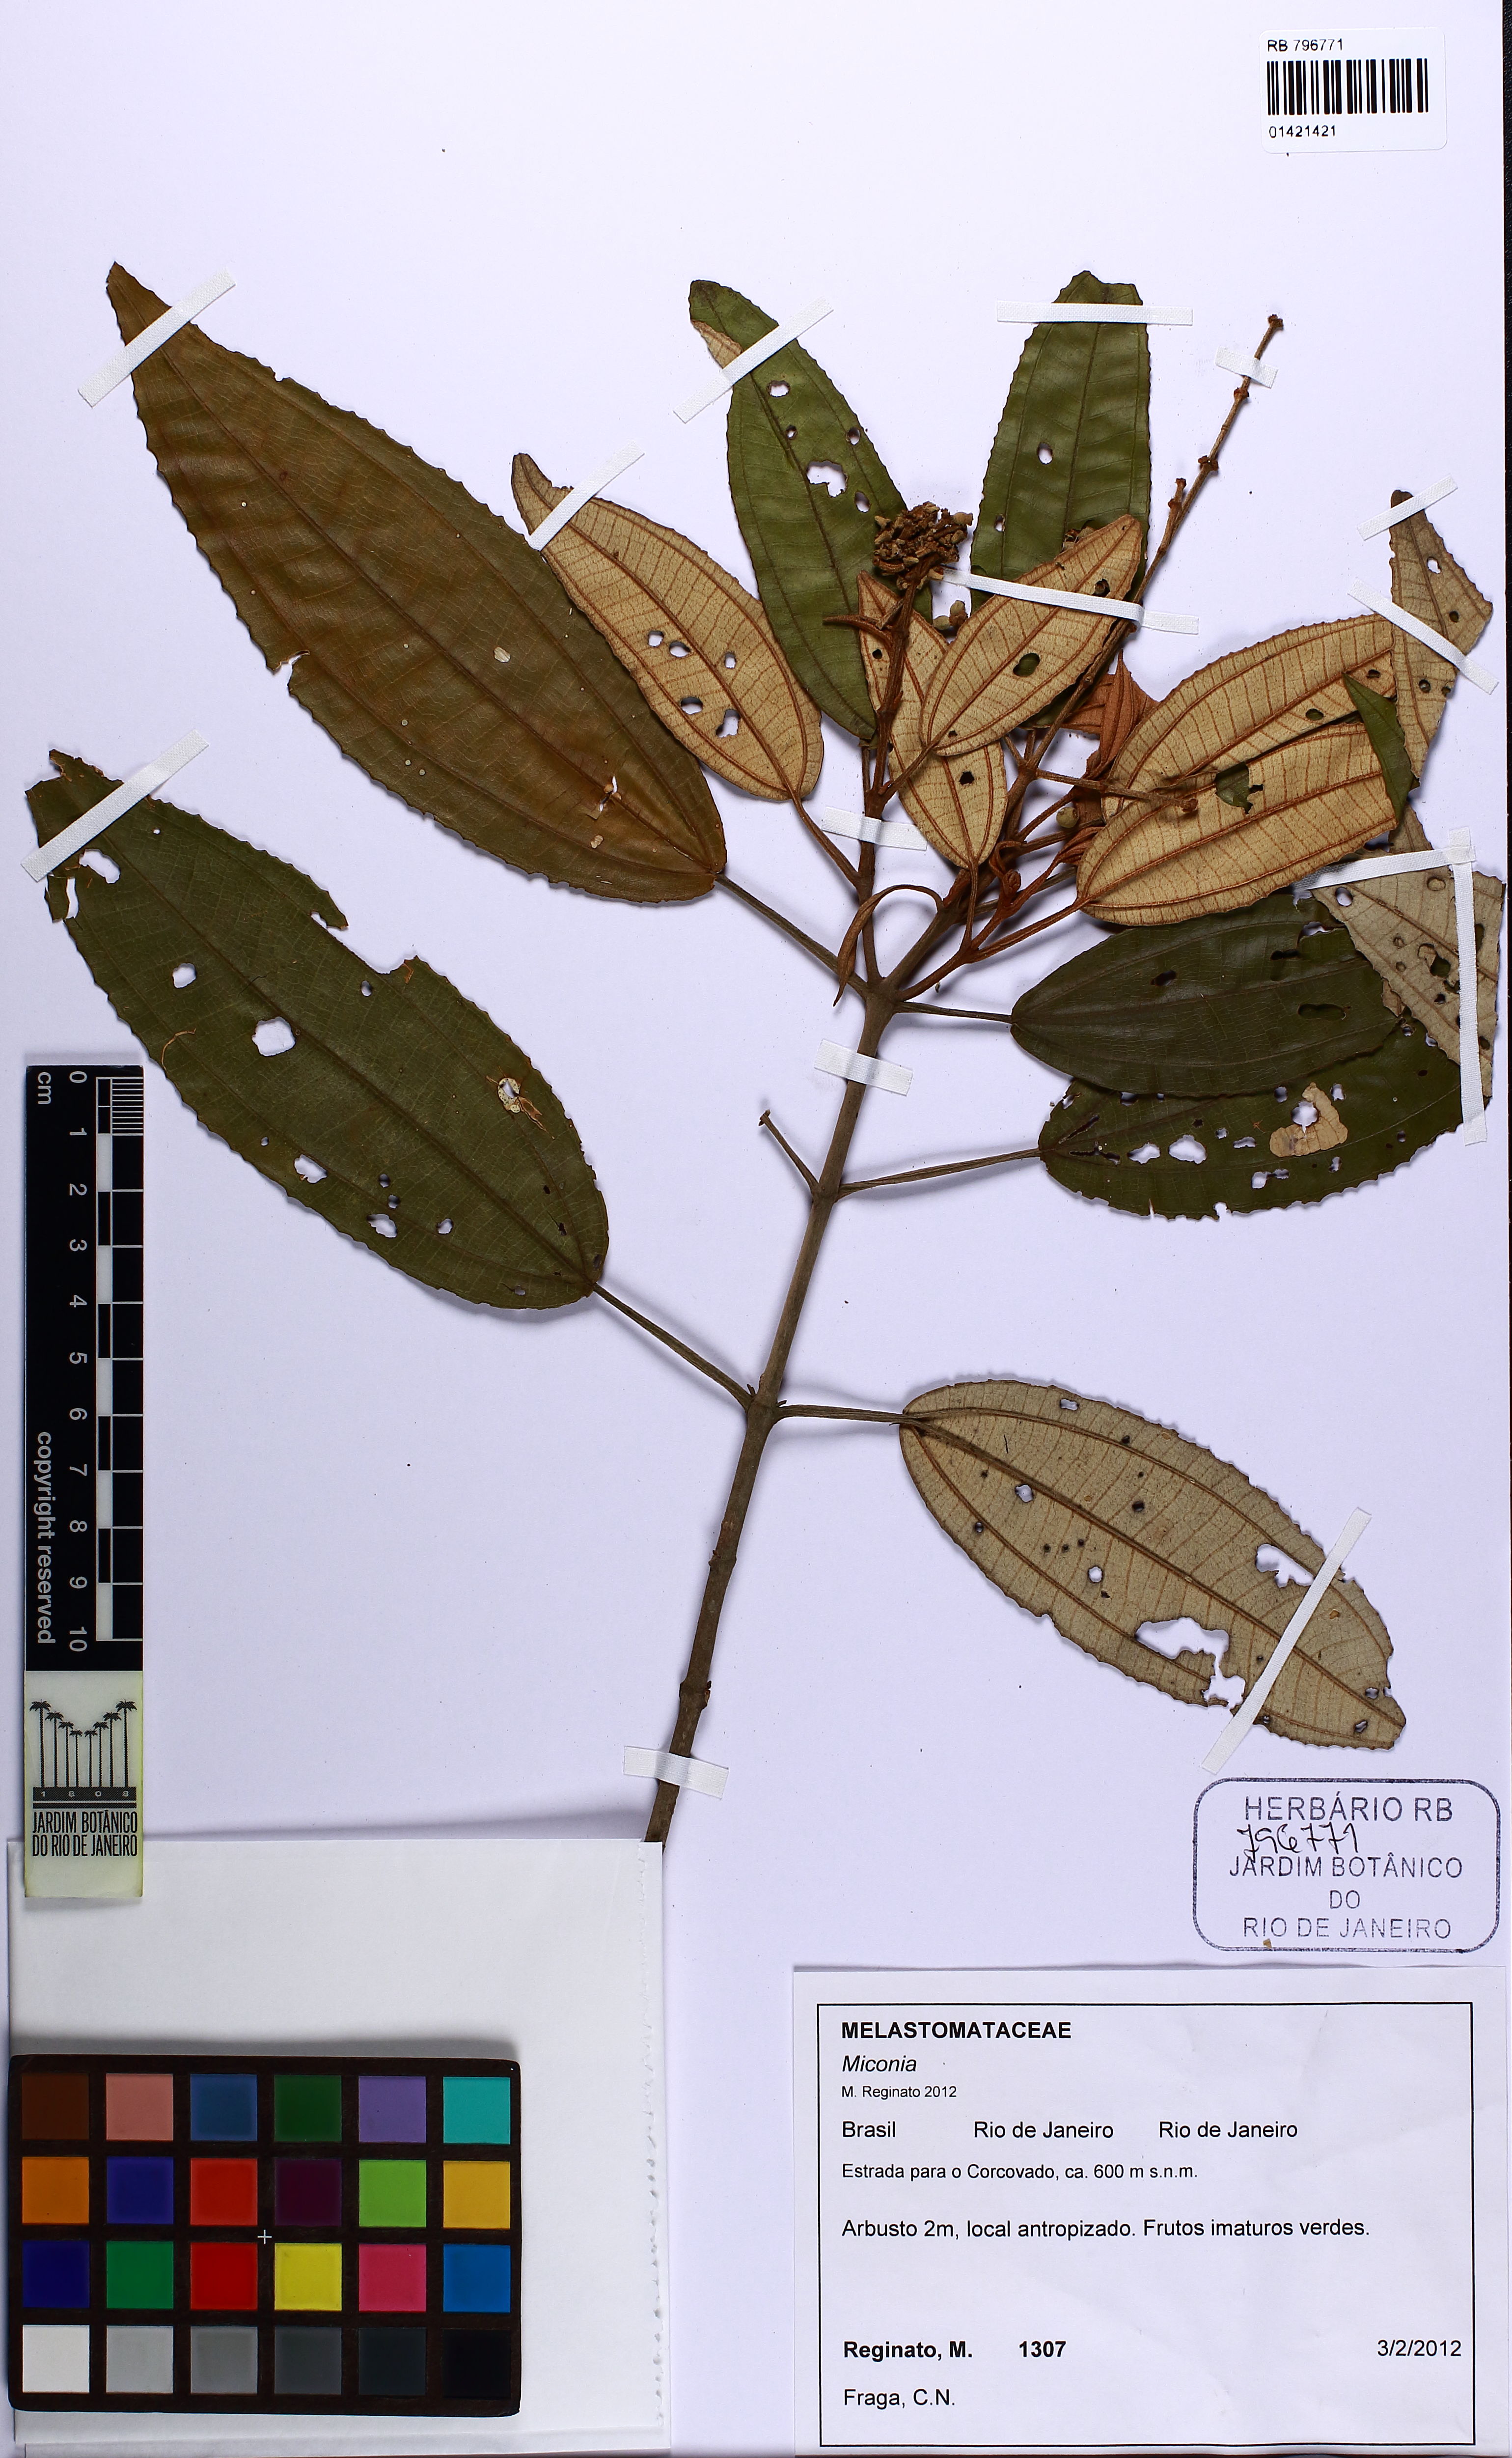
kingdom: Plantae
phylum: Tracheophyta
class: Magnoliopsida
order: Myrtales
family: Melastomataceae
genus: Miconia
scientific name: Miconia cinerascens
